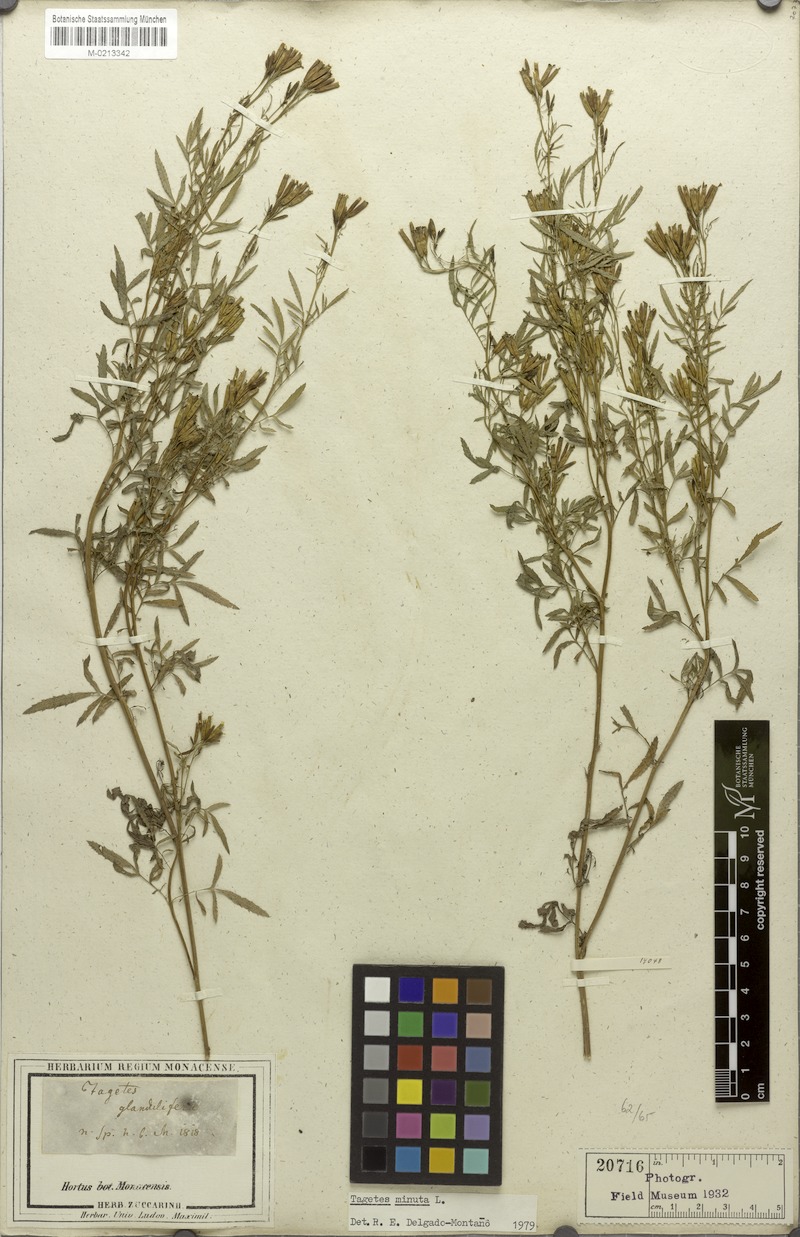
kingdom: Plantae
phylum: Tracheophyta
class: Magnoliopsida
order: Asterales
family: Asteraceae
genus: Tagetes
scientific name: Tagetes minuta
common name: Muster john henry
